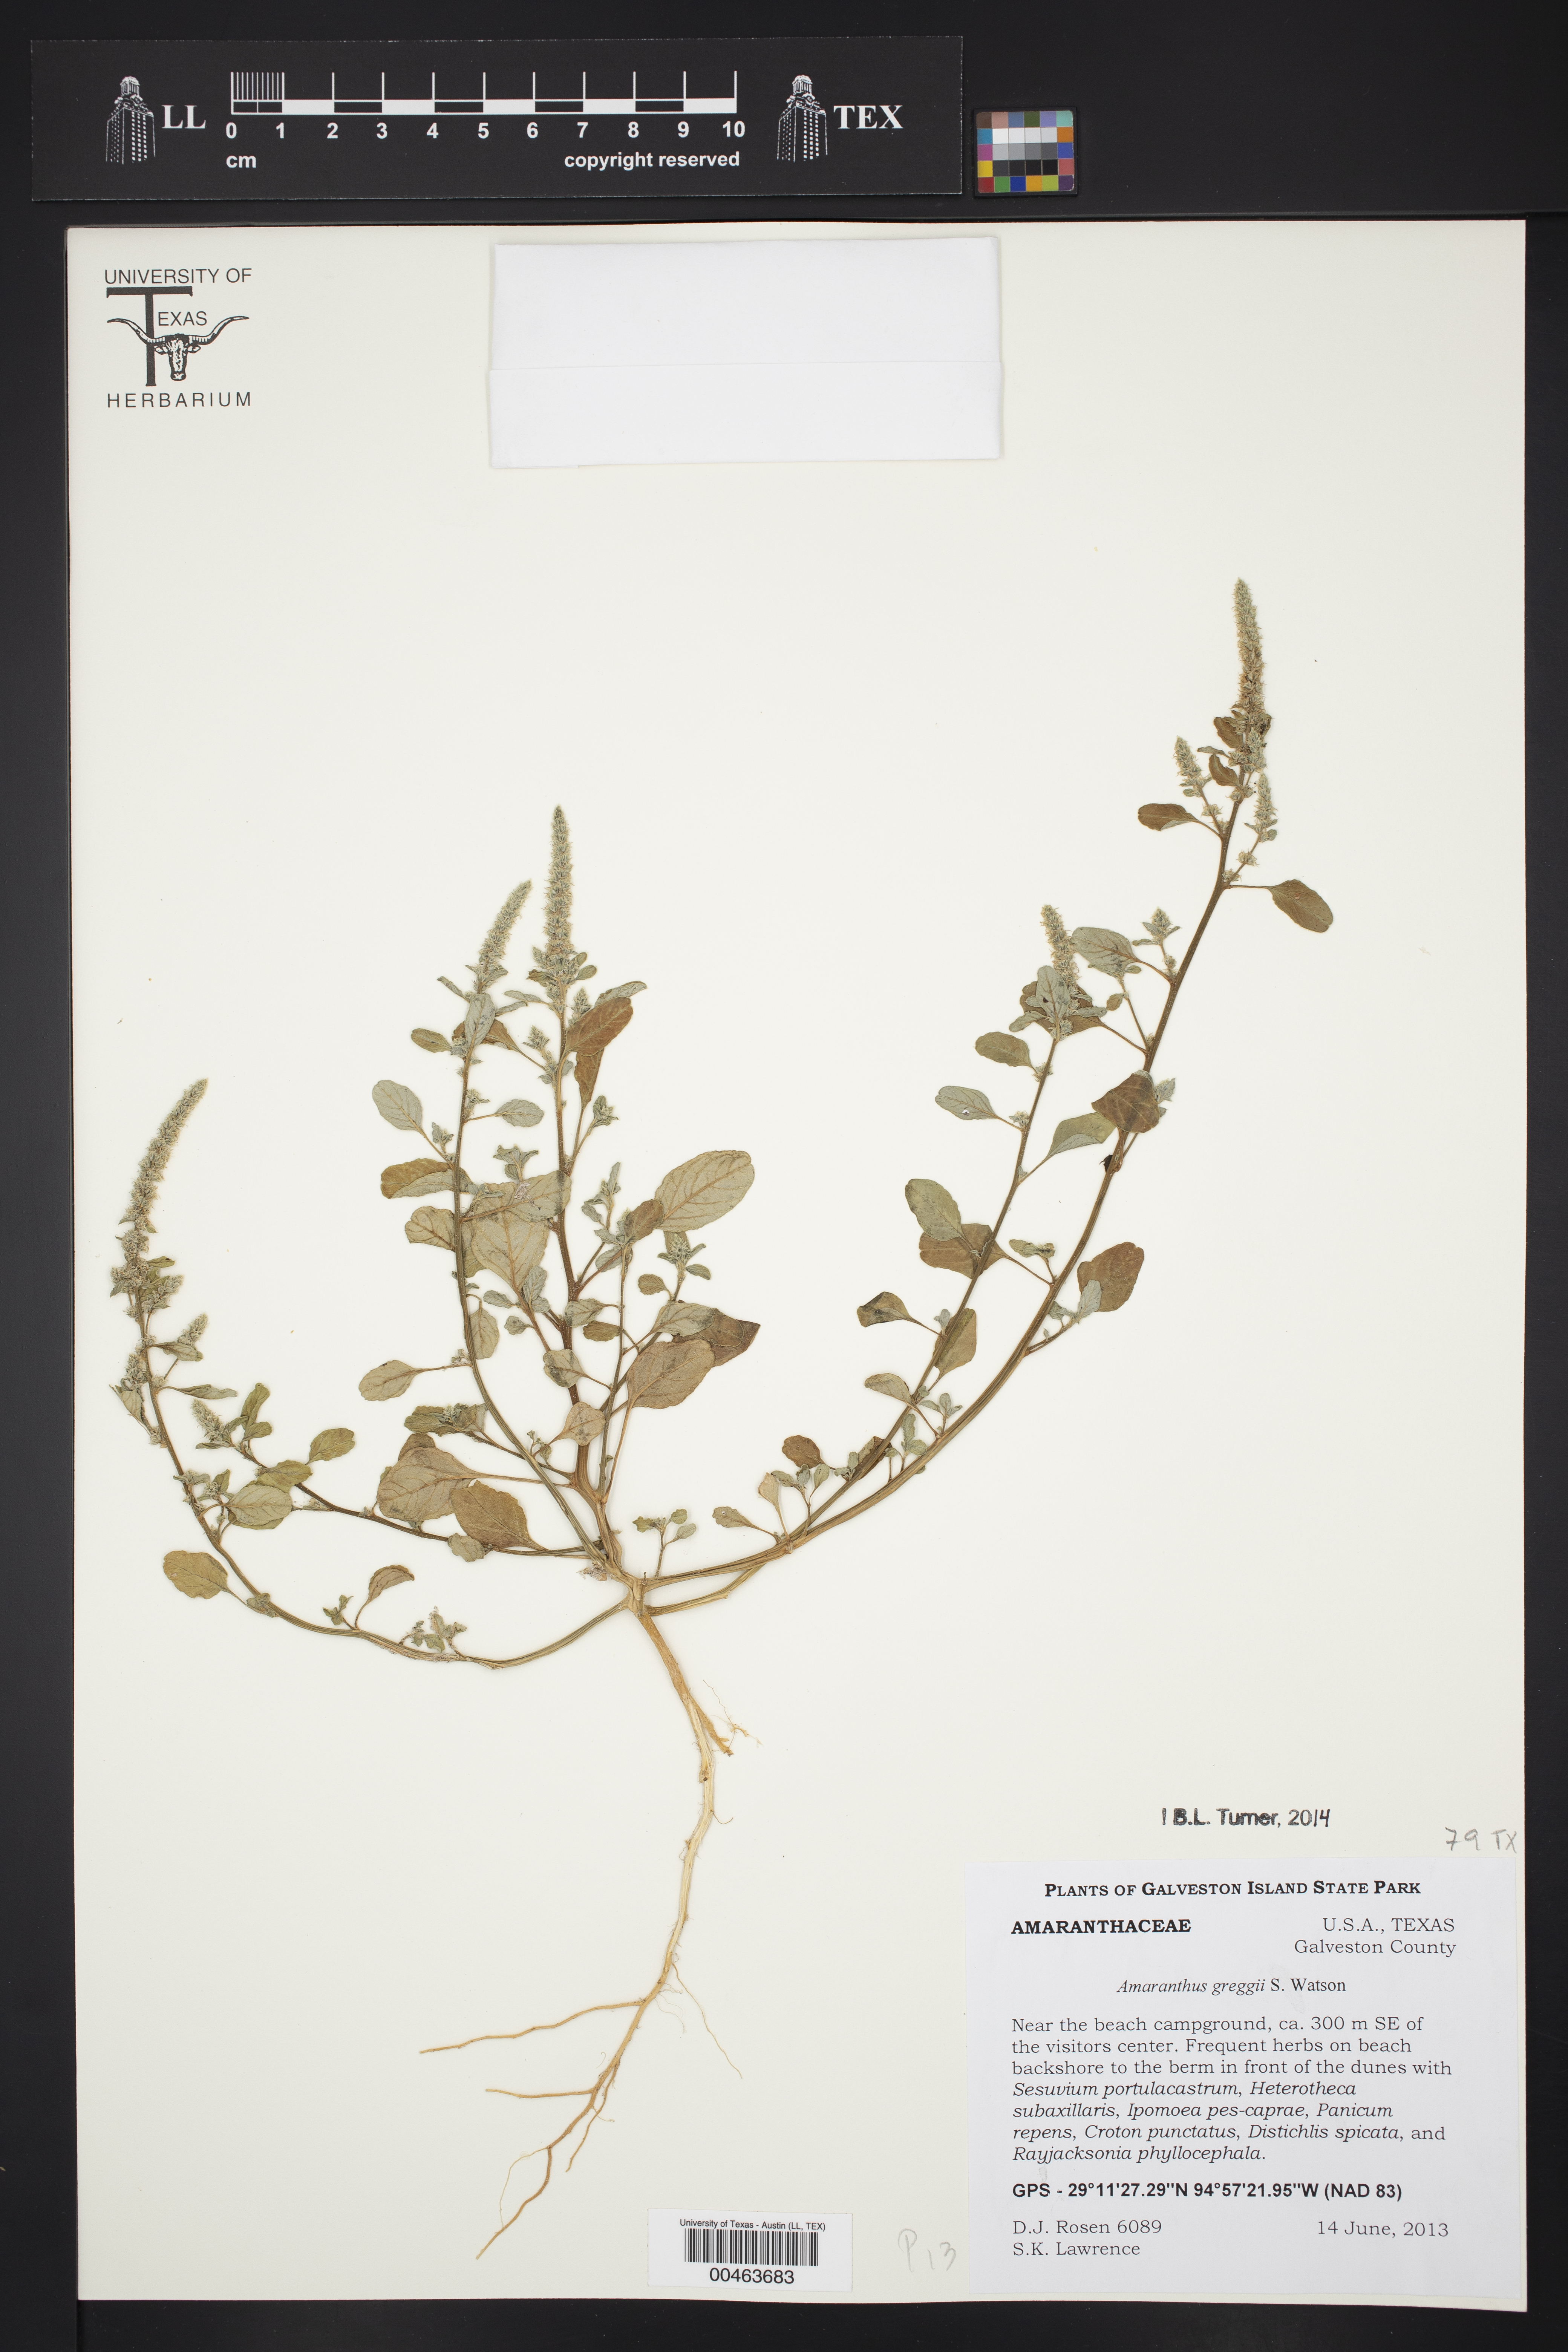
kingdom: Plantae
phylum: Tracheophyta
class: Magnoliopsida
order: Caryophyllales
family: Amaranthaceae
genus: Amaranthus
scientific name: Amaranthus greggii
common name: Josiah amaranth
